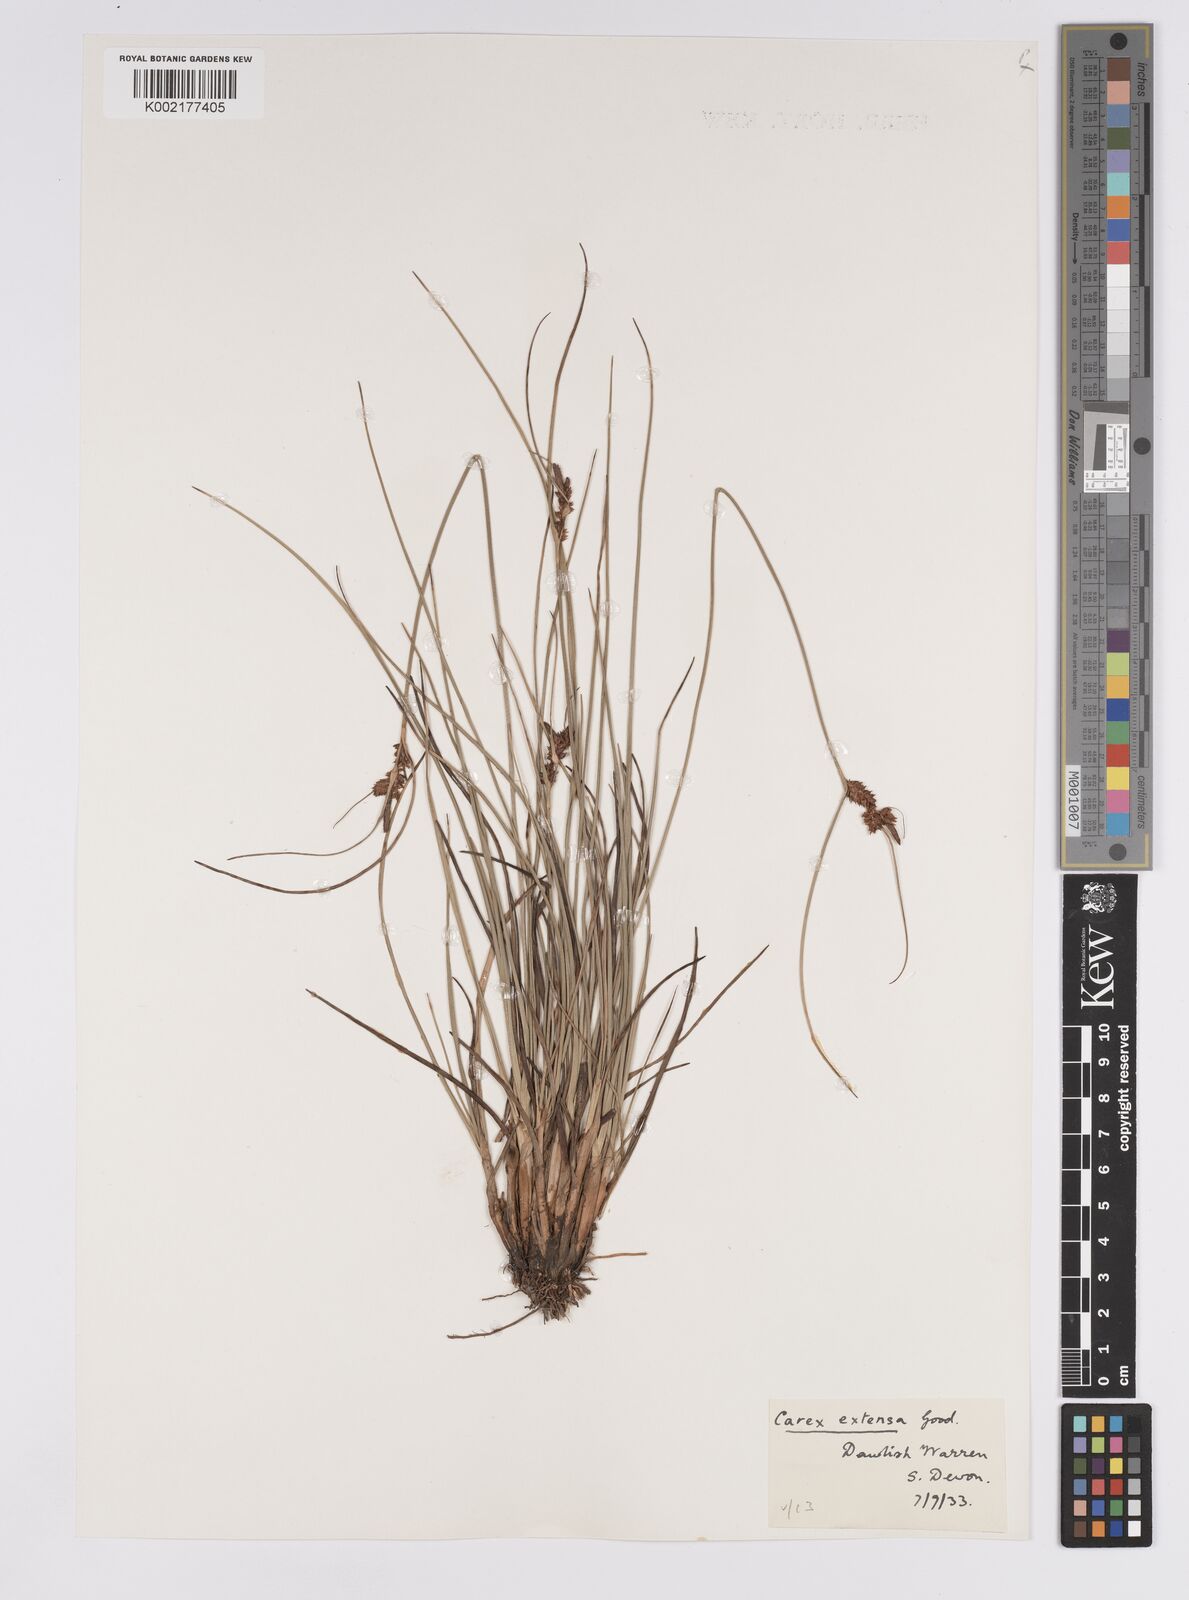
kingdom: Plantae
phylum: Tracheophyta
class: Liliopsida
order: Poales
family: Cyperaceae
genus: Carex
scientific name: Carex extensa
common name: Long-bracted sedge
